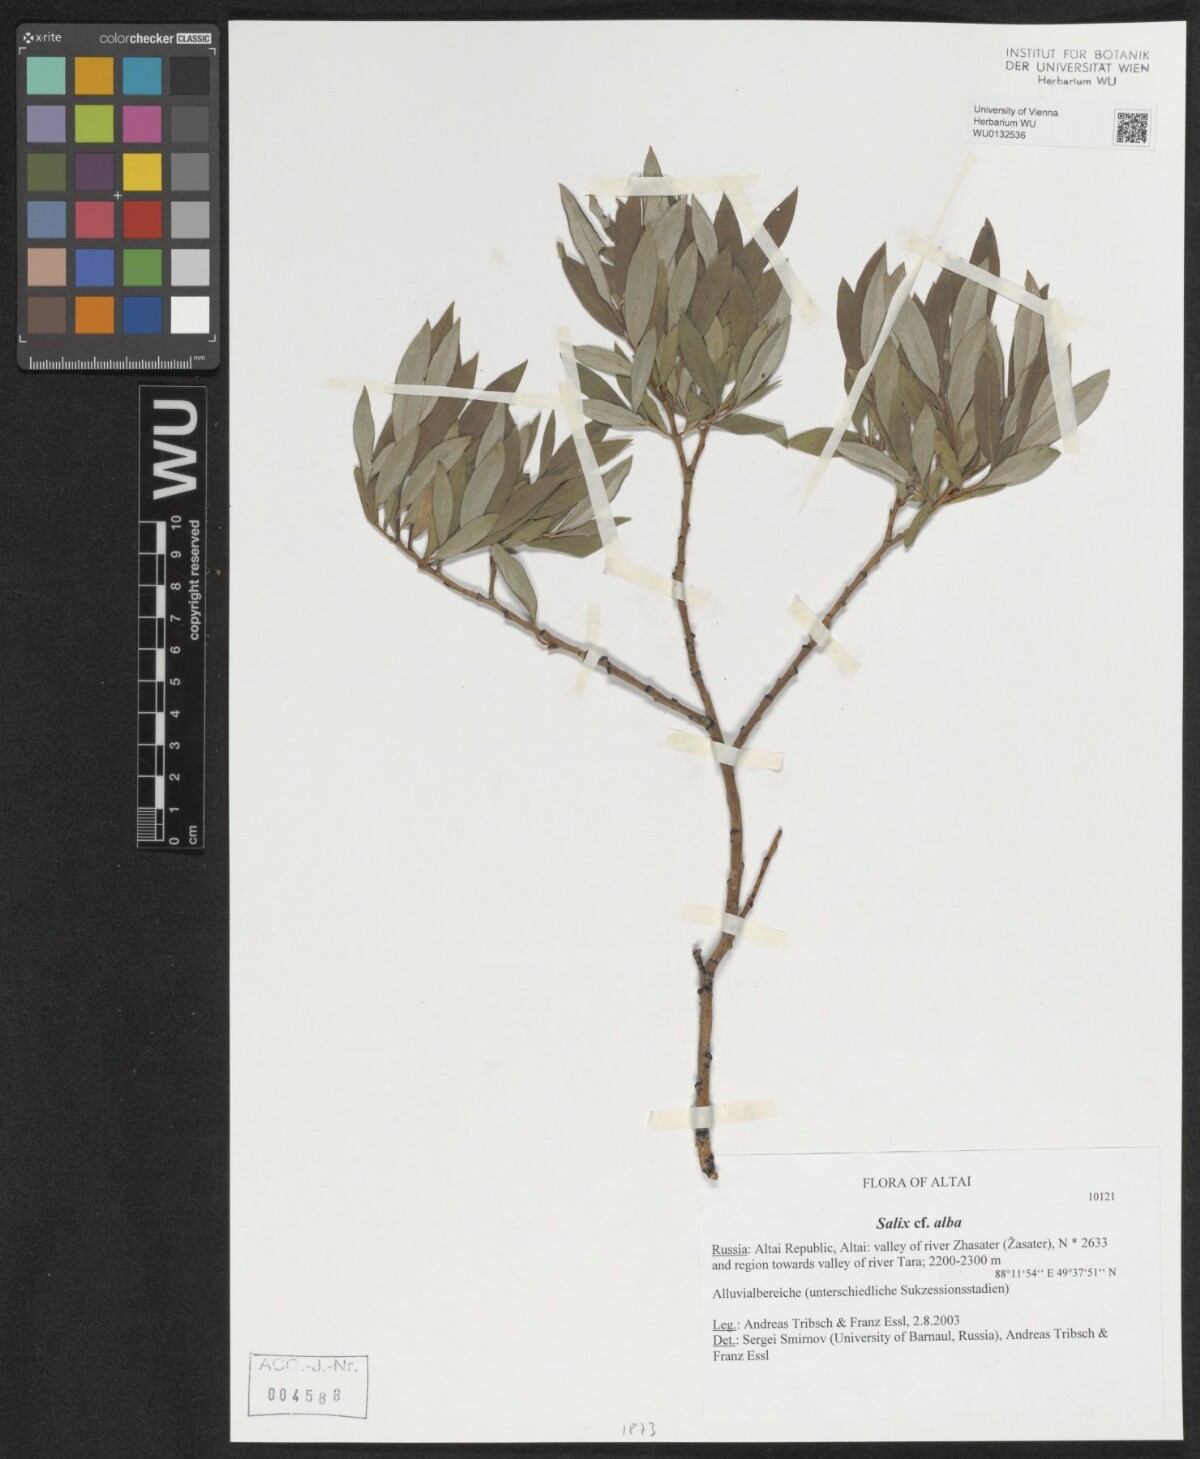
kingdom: Plantae
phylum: Tracheophyta
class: Magnoliopsida
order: Malpighiales
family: Salicaceae
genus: Salix
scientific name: Salix alba
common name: White willow
